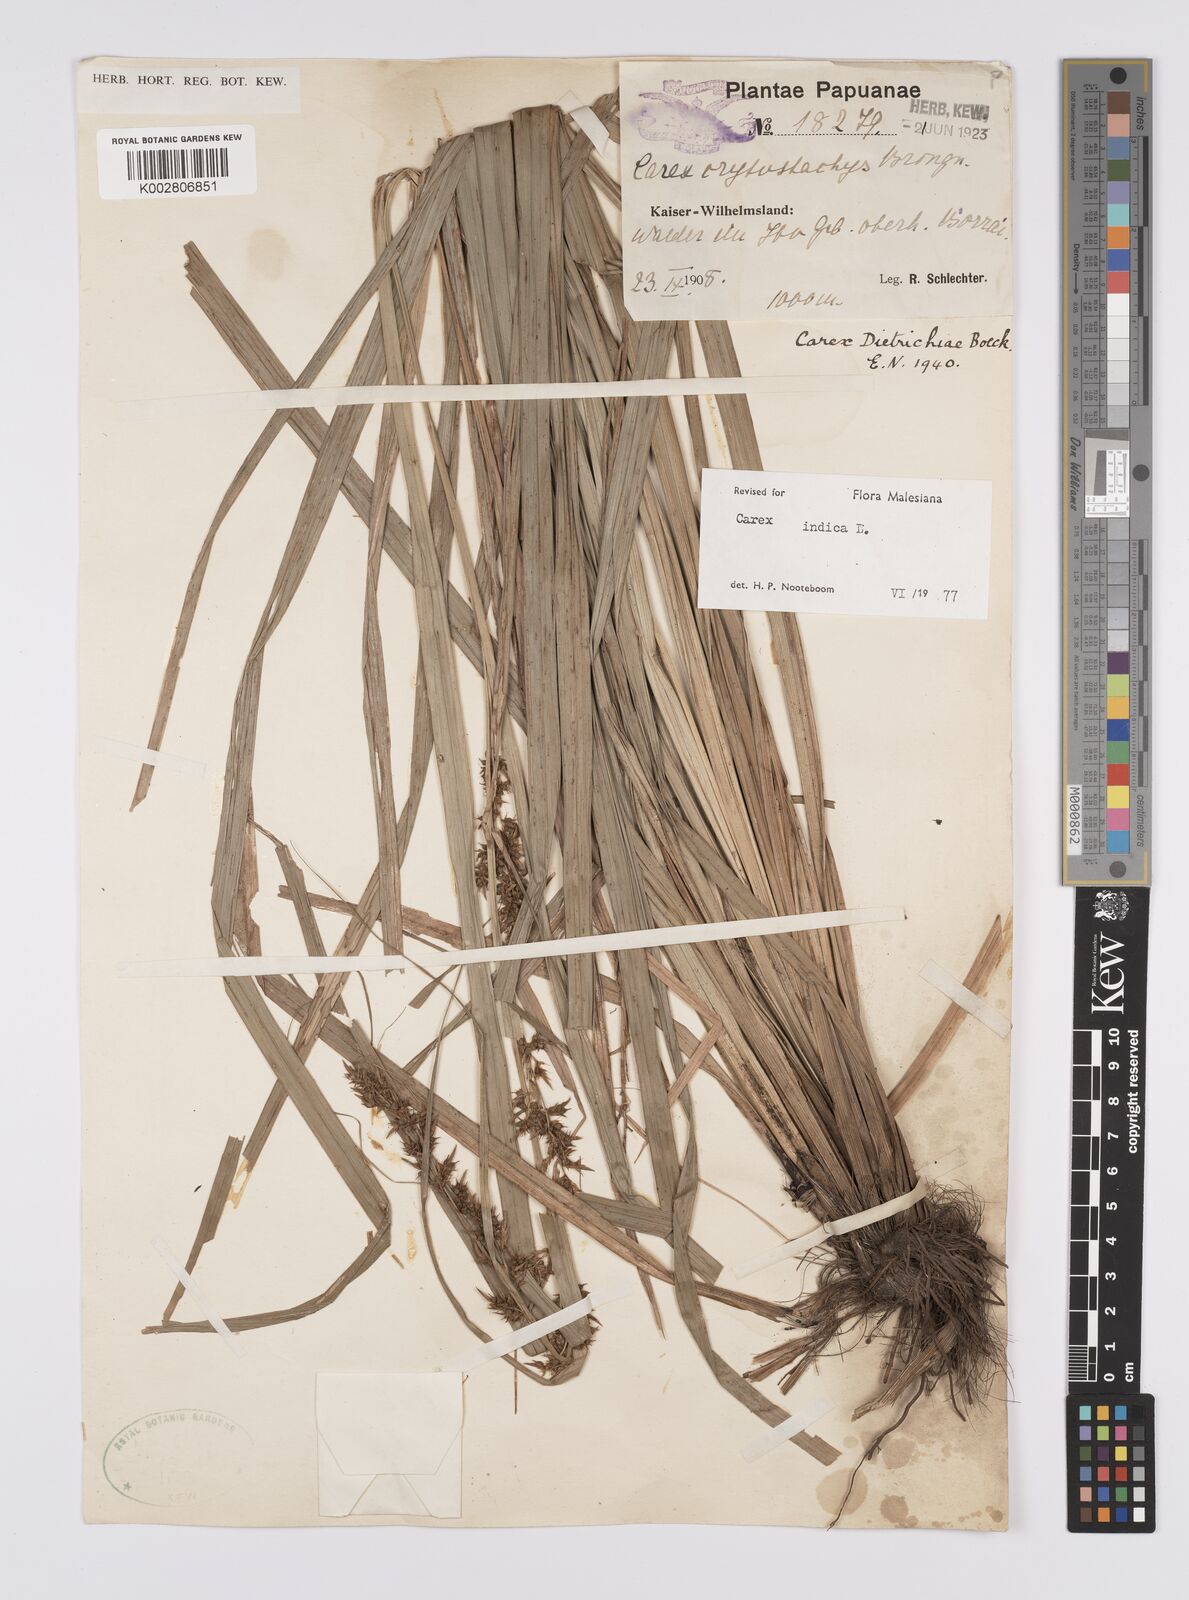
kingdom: Plantae
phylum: Tracheophyta
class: Liliopsida
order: Poales
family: Cyperaceae
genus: Carex
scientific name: Carex indica
